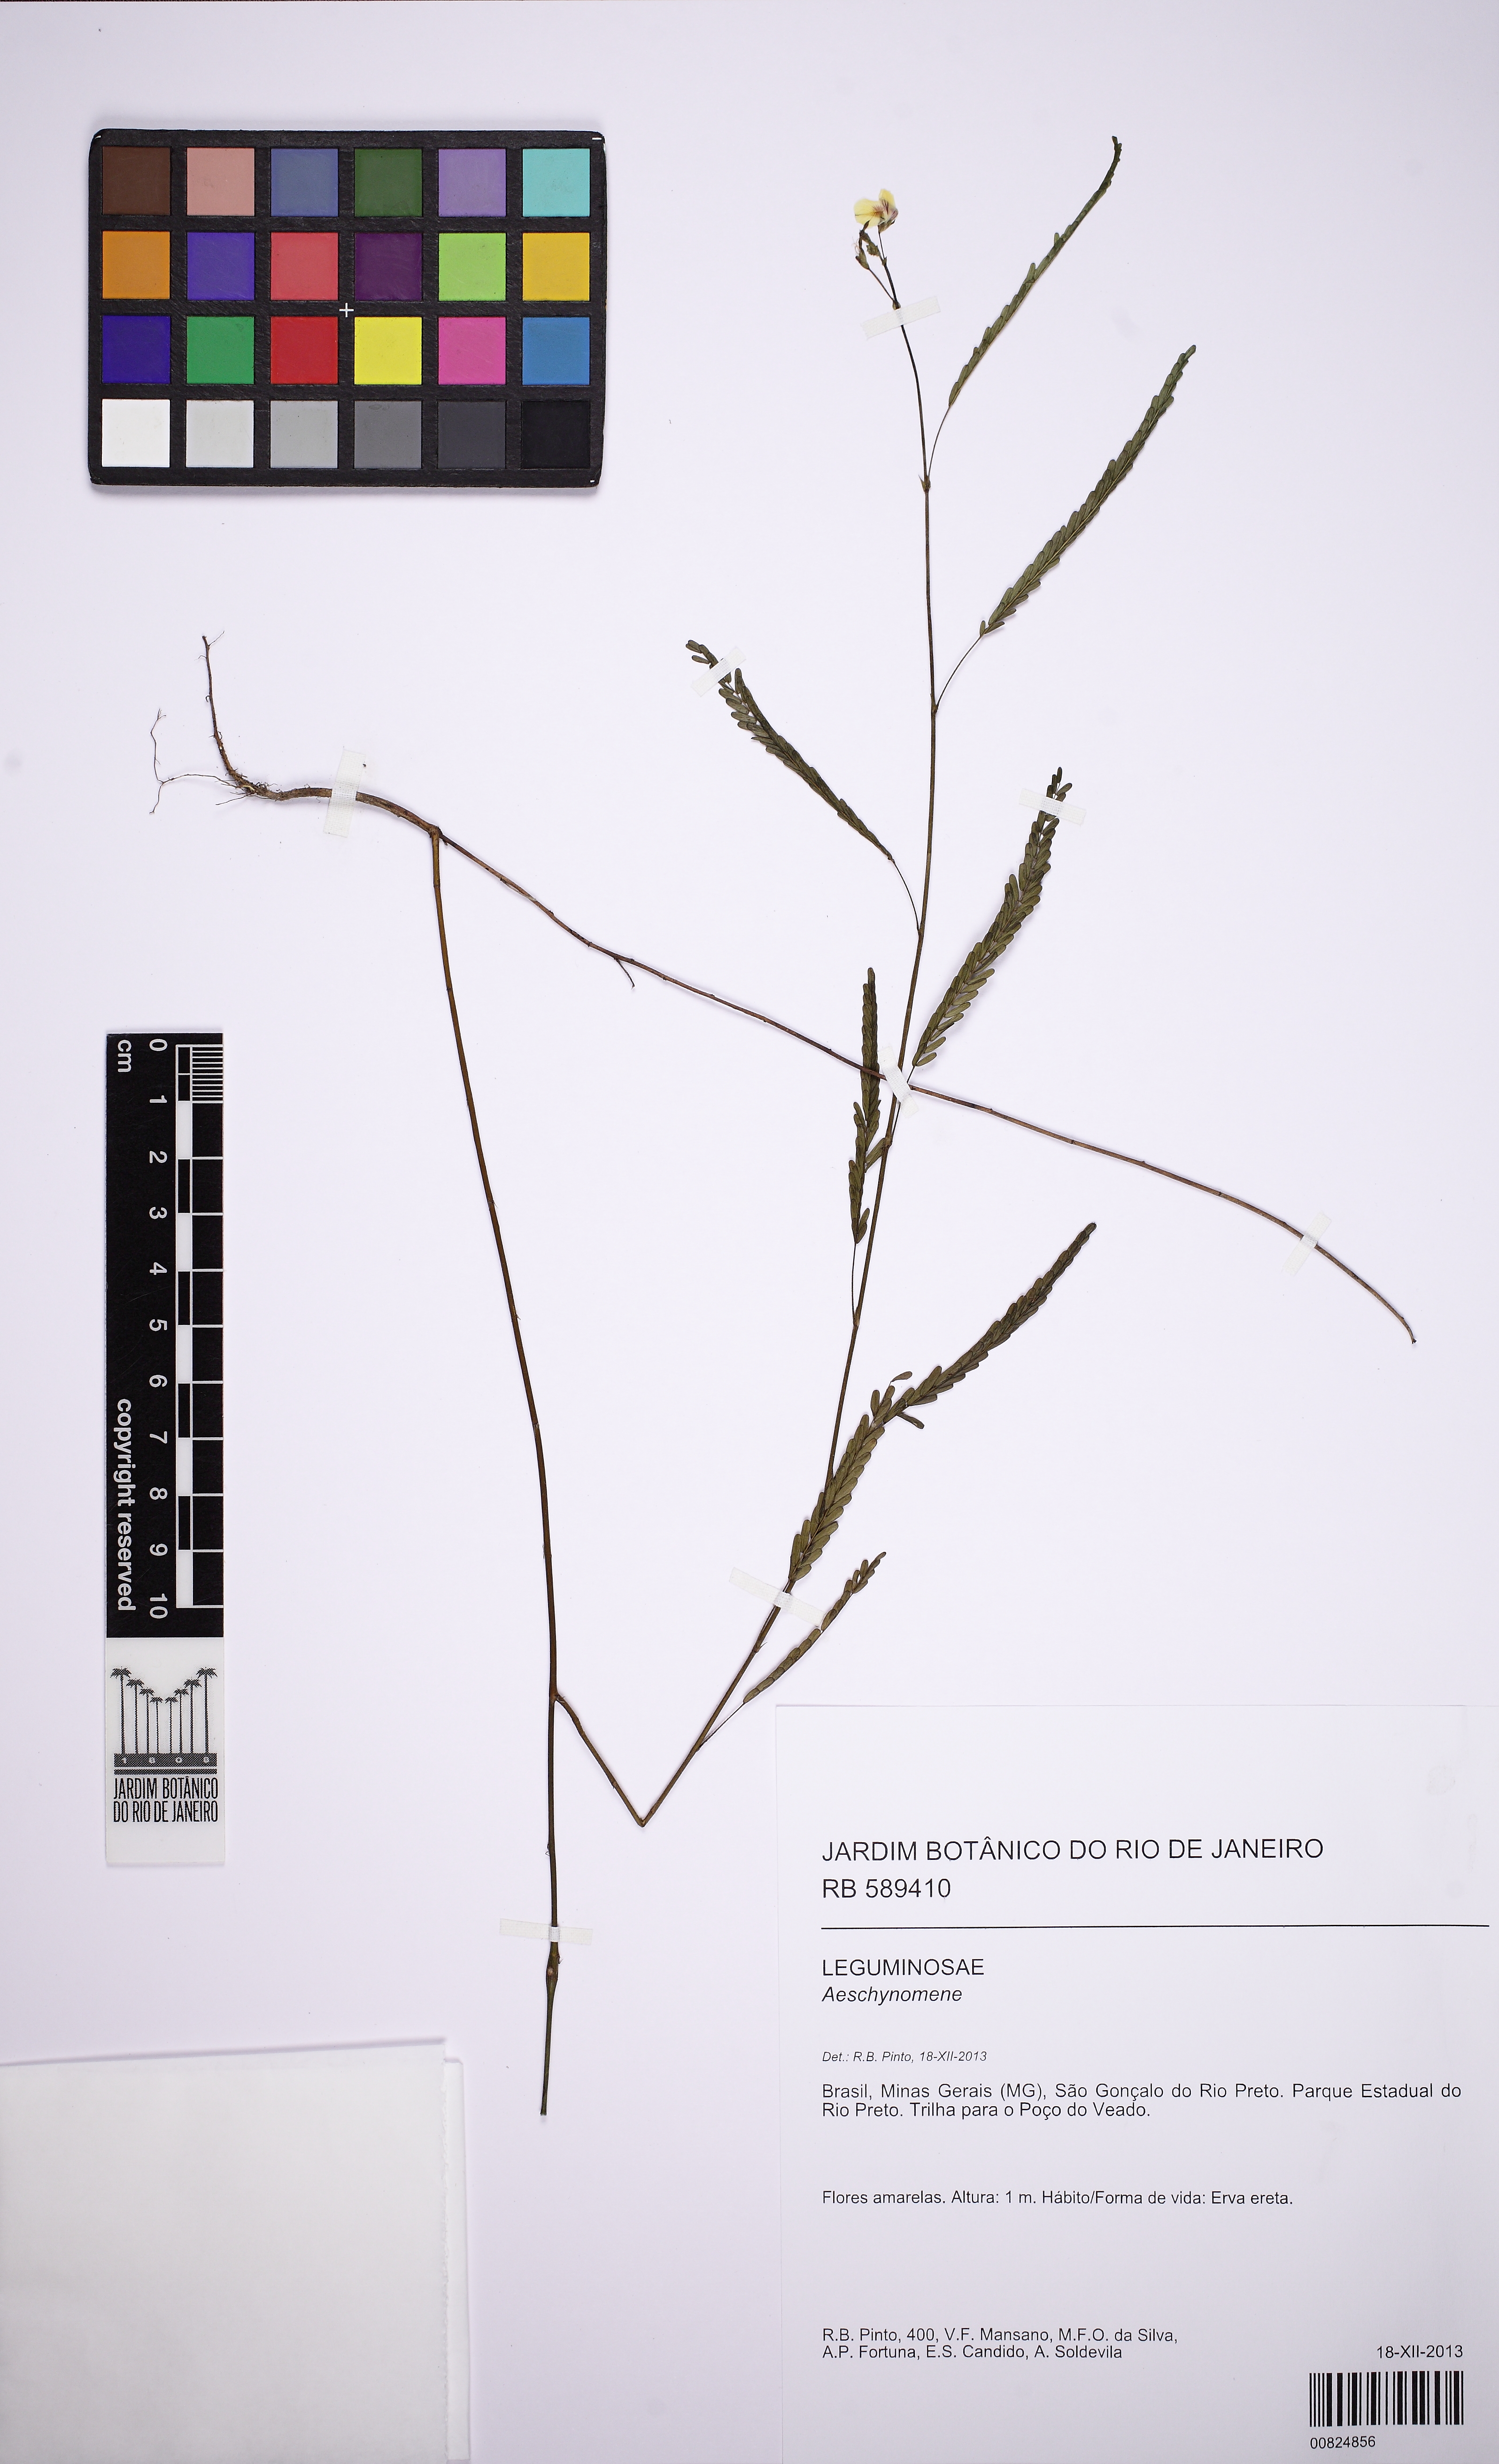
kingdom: Plantae
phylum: Tracheophyta
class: Magnoliopsida
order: Fabales
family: Fabaceae
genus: Aeschynomene
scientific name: Aeschynomene
